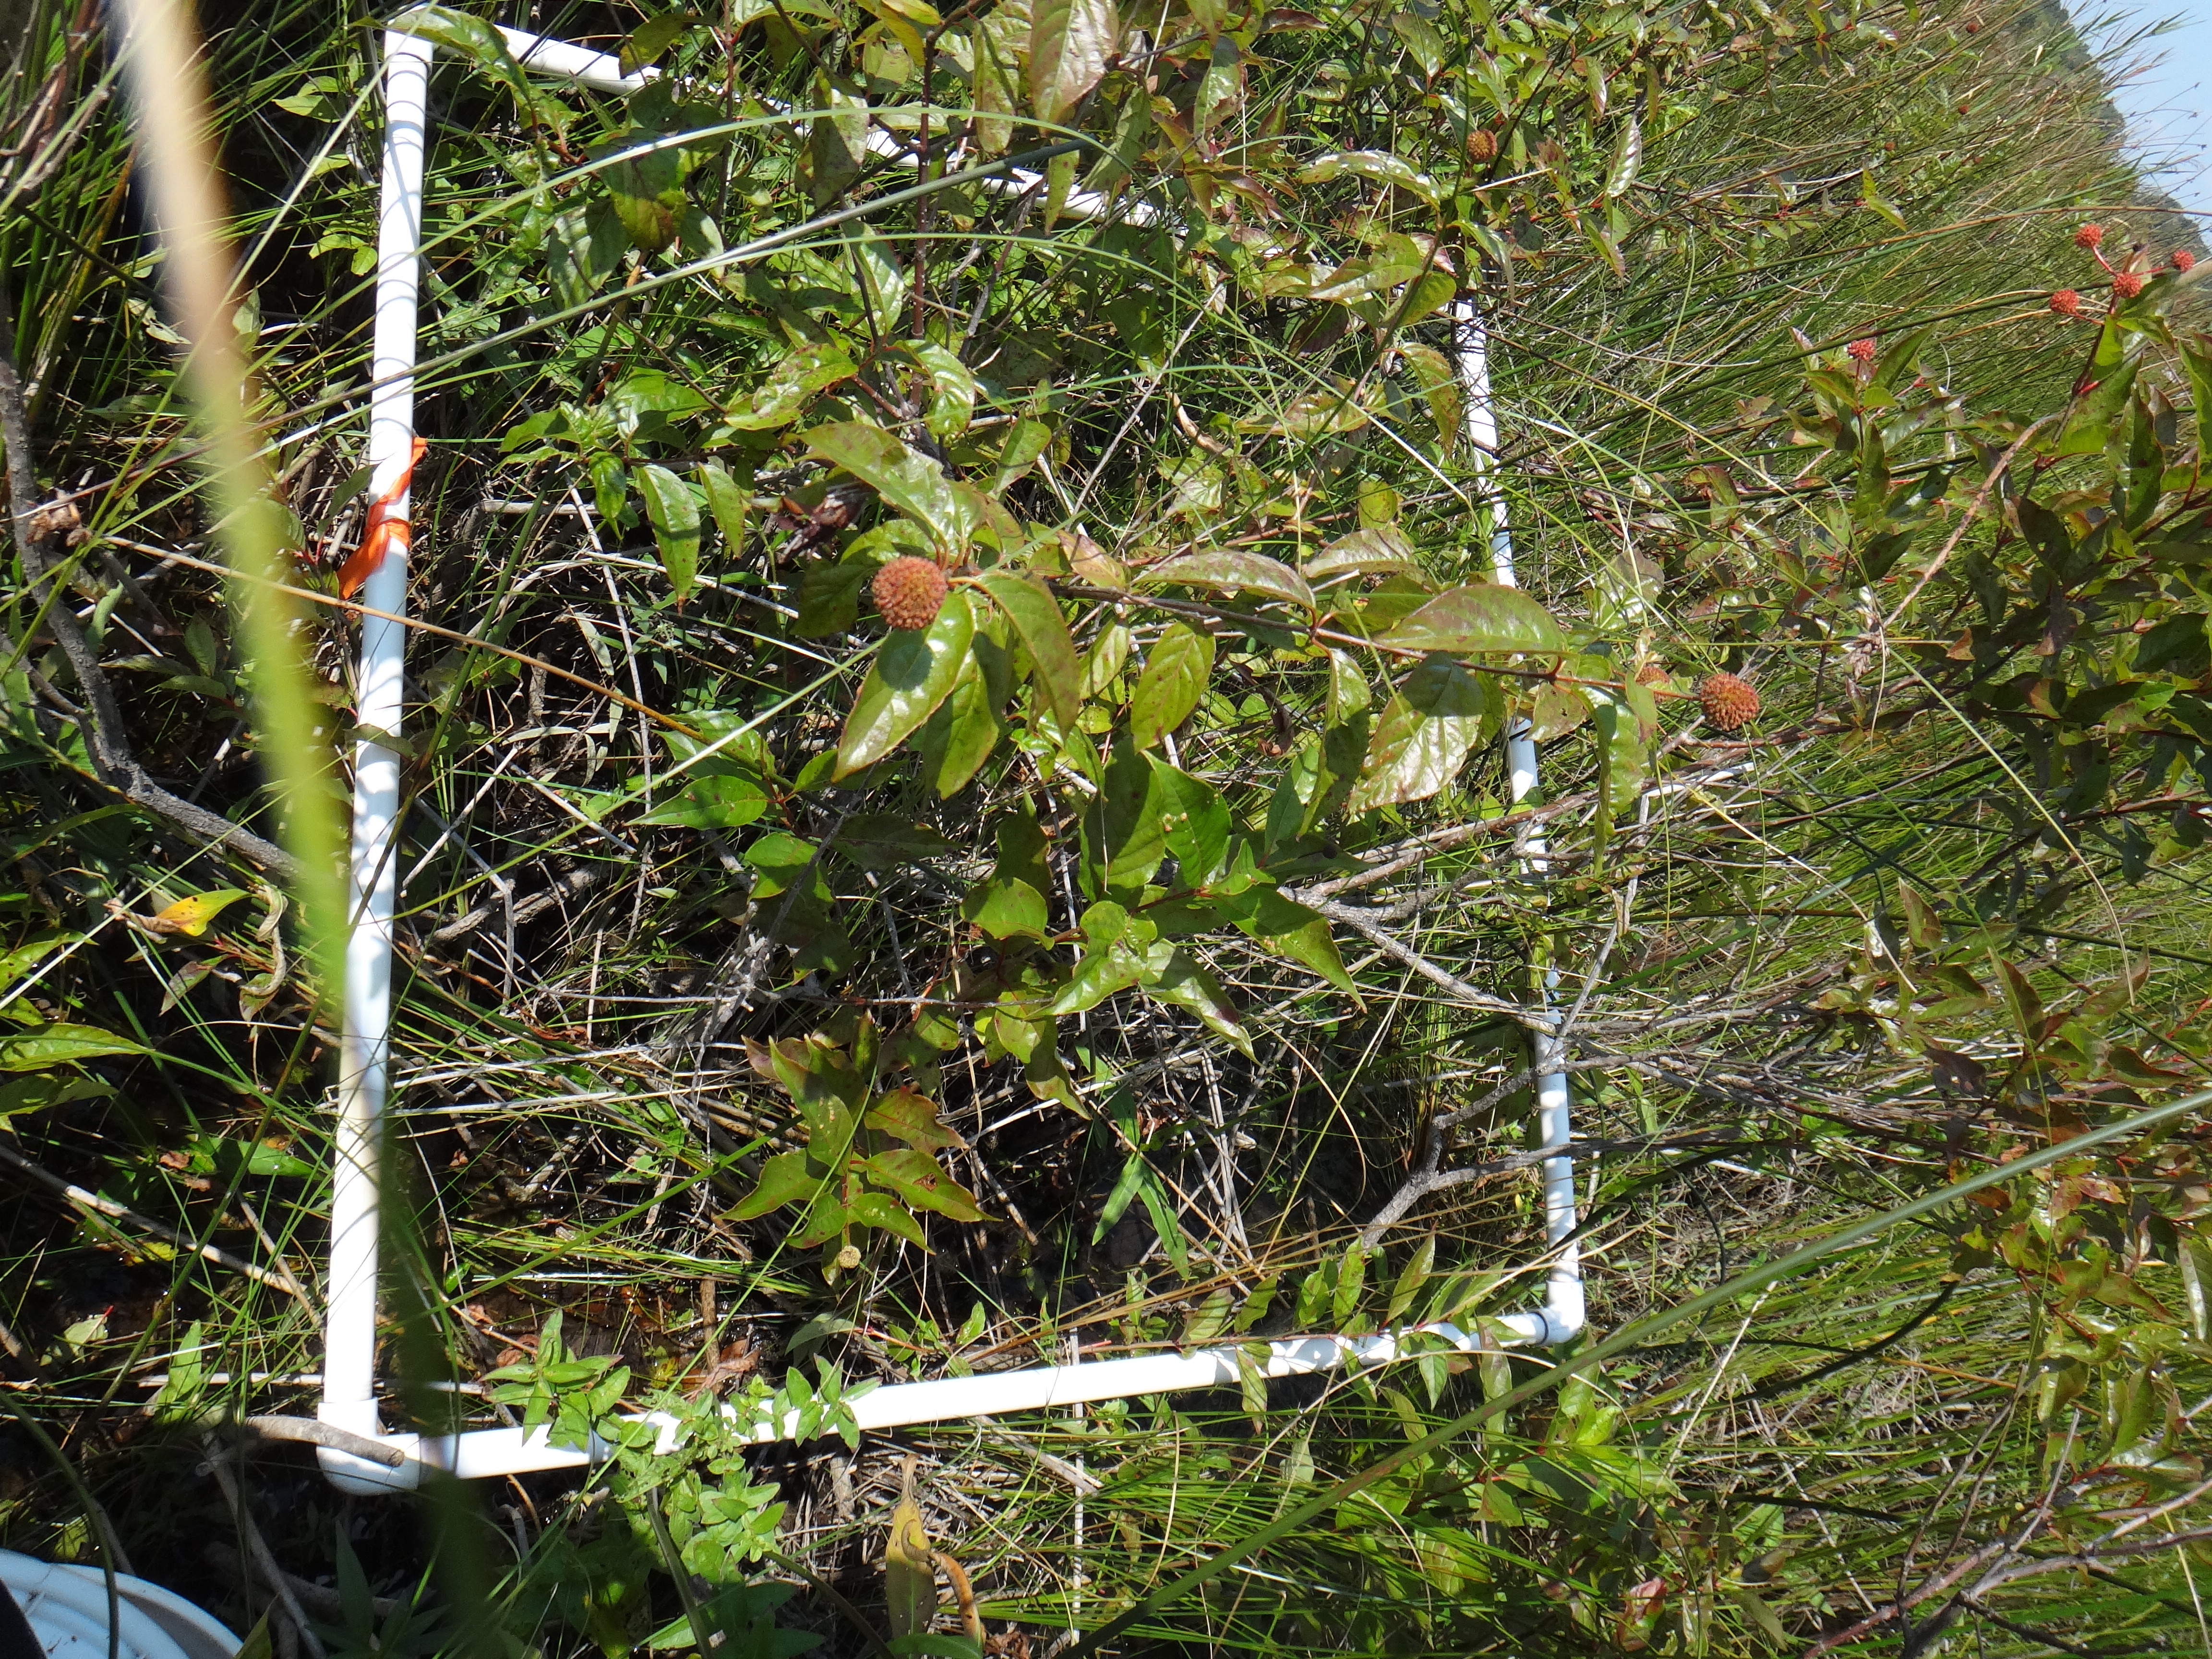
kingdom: Plantae
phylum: Tracheophyta
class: Magnoliopsida
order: Myrtales
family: Lythraceae
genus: Lythrum
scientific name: Lythrum salicaria
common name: Purple loosestrife
